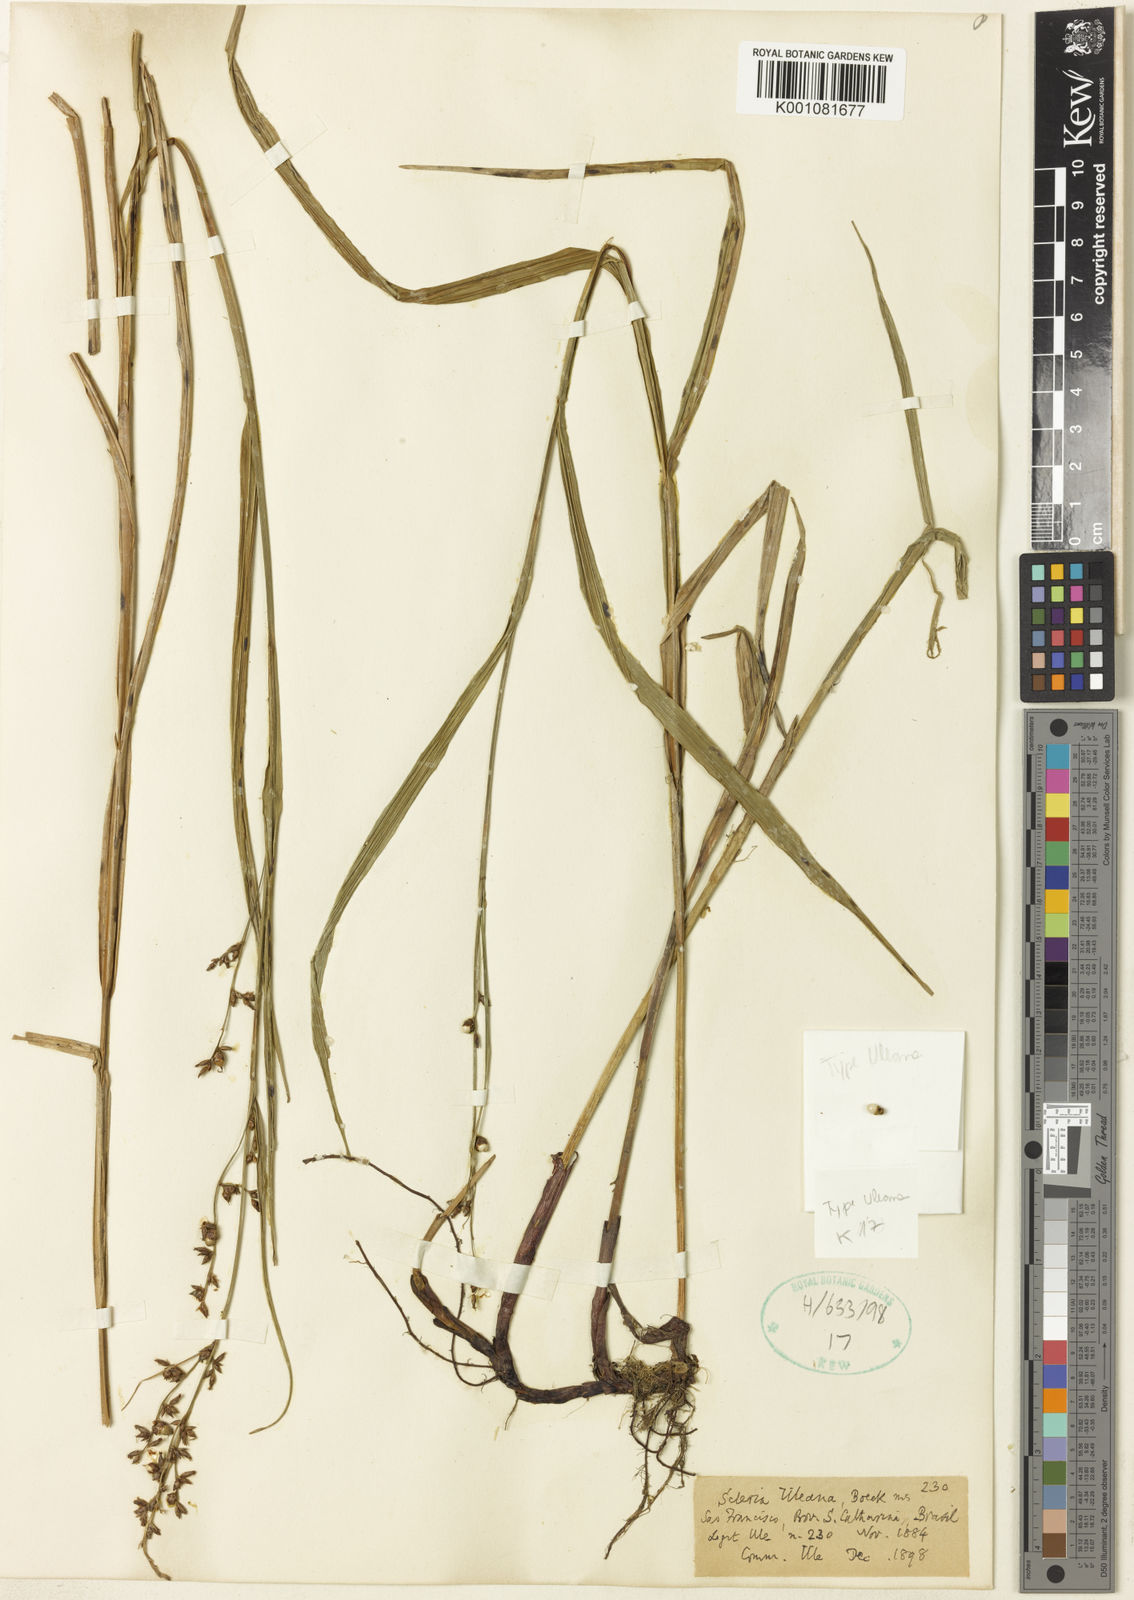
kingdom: Plantae
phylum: Tracheophyta
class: Liliopsida
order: Poales
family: Cyperaceae
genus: Scleria
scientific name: Scleria uleana
